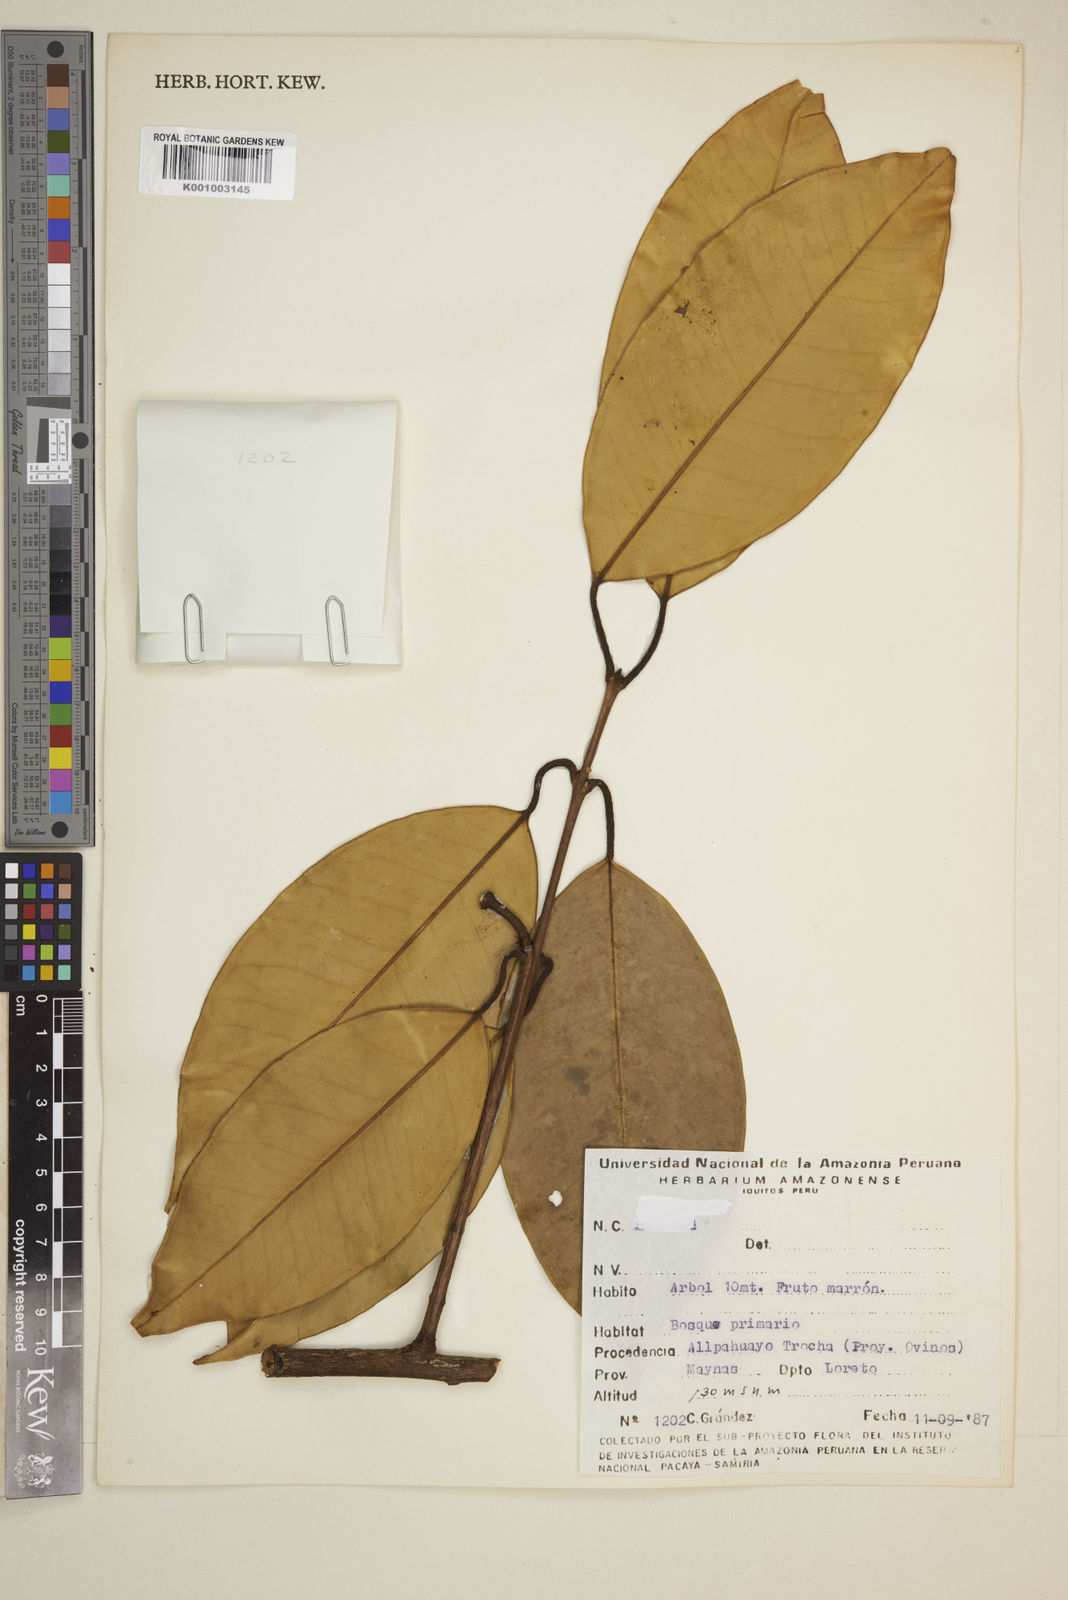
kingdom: Plantae
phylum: Tracheophyta
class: Magnoliopsida
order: Myrtales
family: Myrtaceae
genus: Eugenia
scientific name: Eugenia
